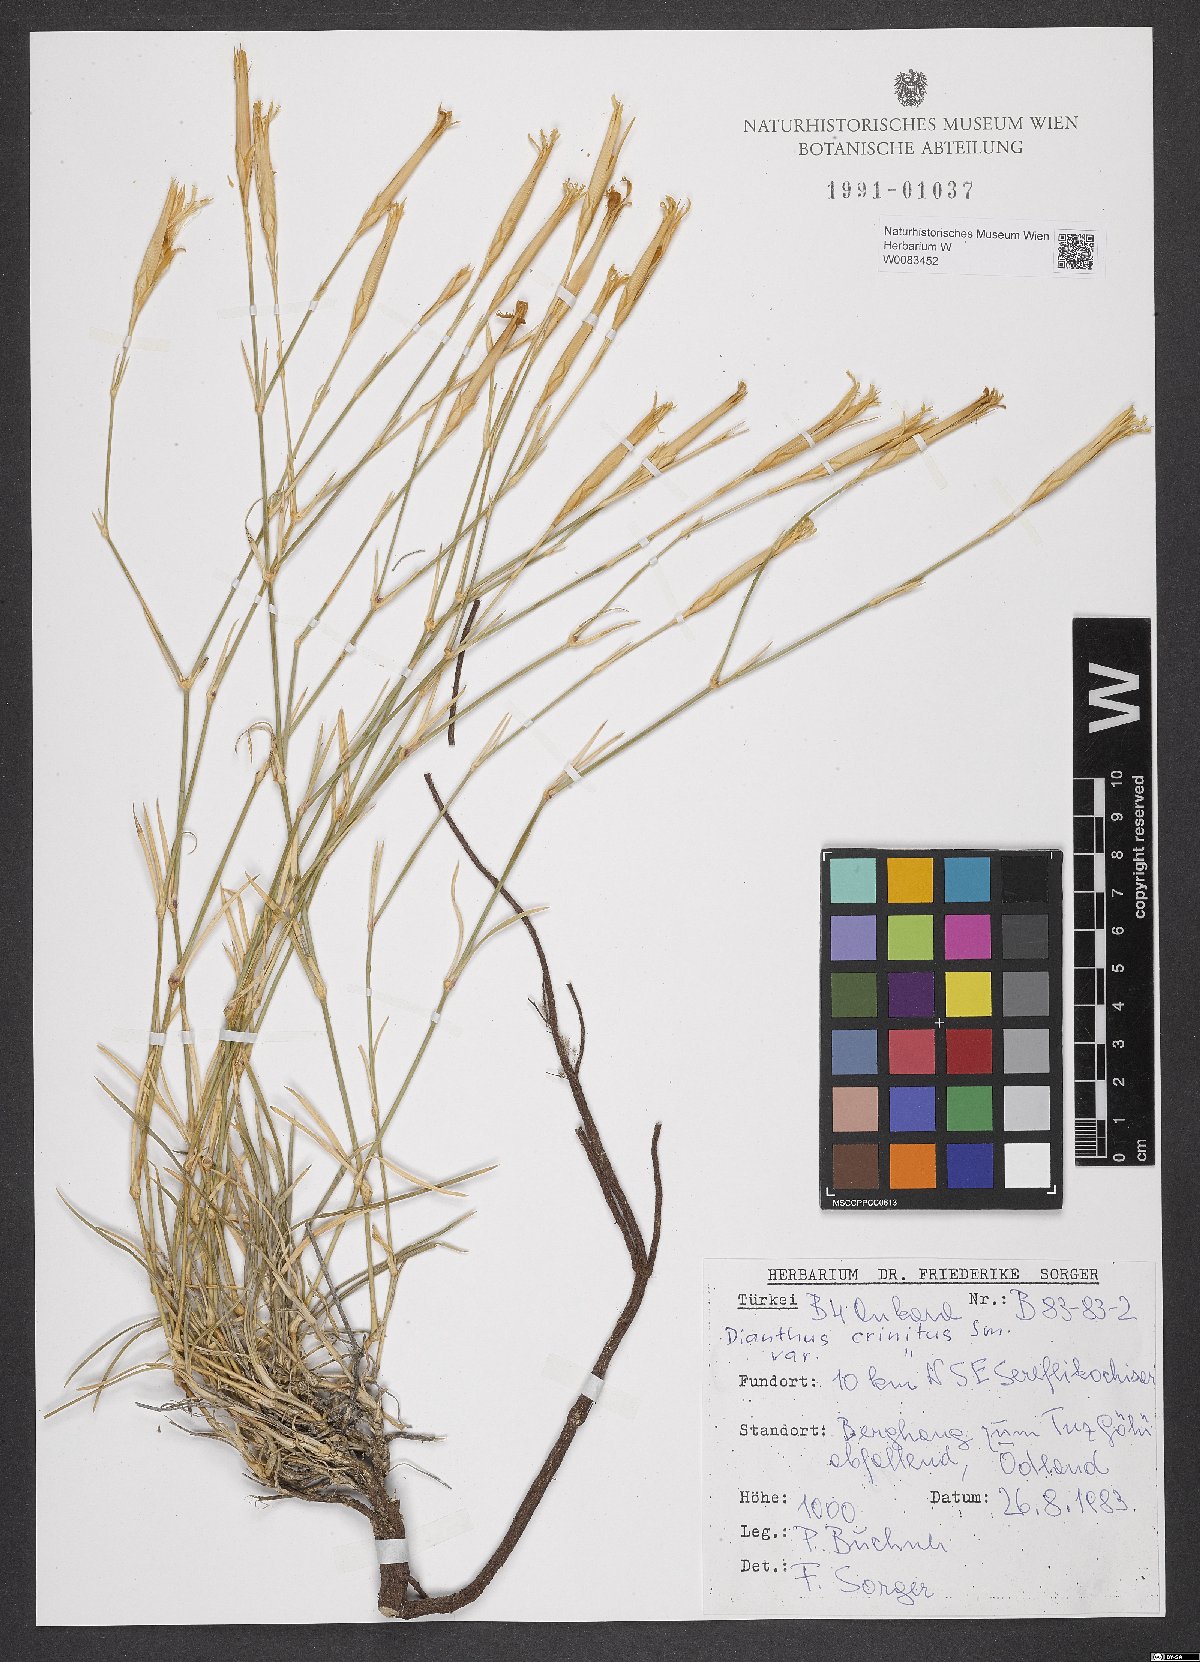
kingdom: Plantae
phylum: Tracheophyta
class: Magnoliopsida
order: Caryophyllales
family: Caryophyllaceae
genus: Dianthus
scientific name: Dianthus crinitus
